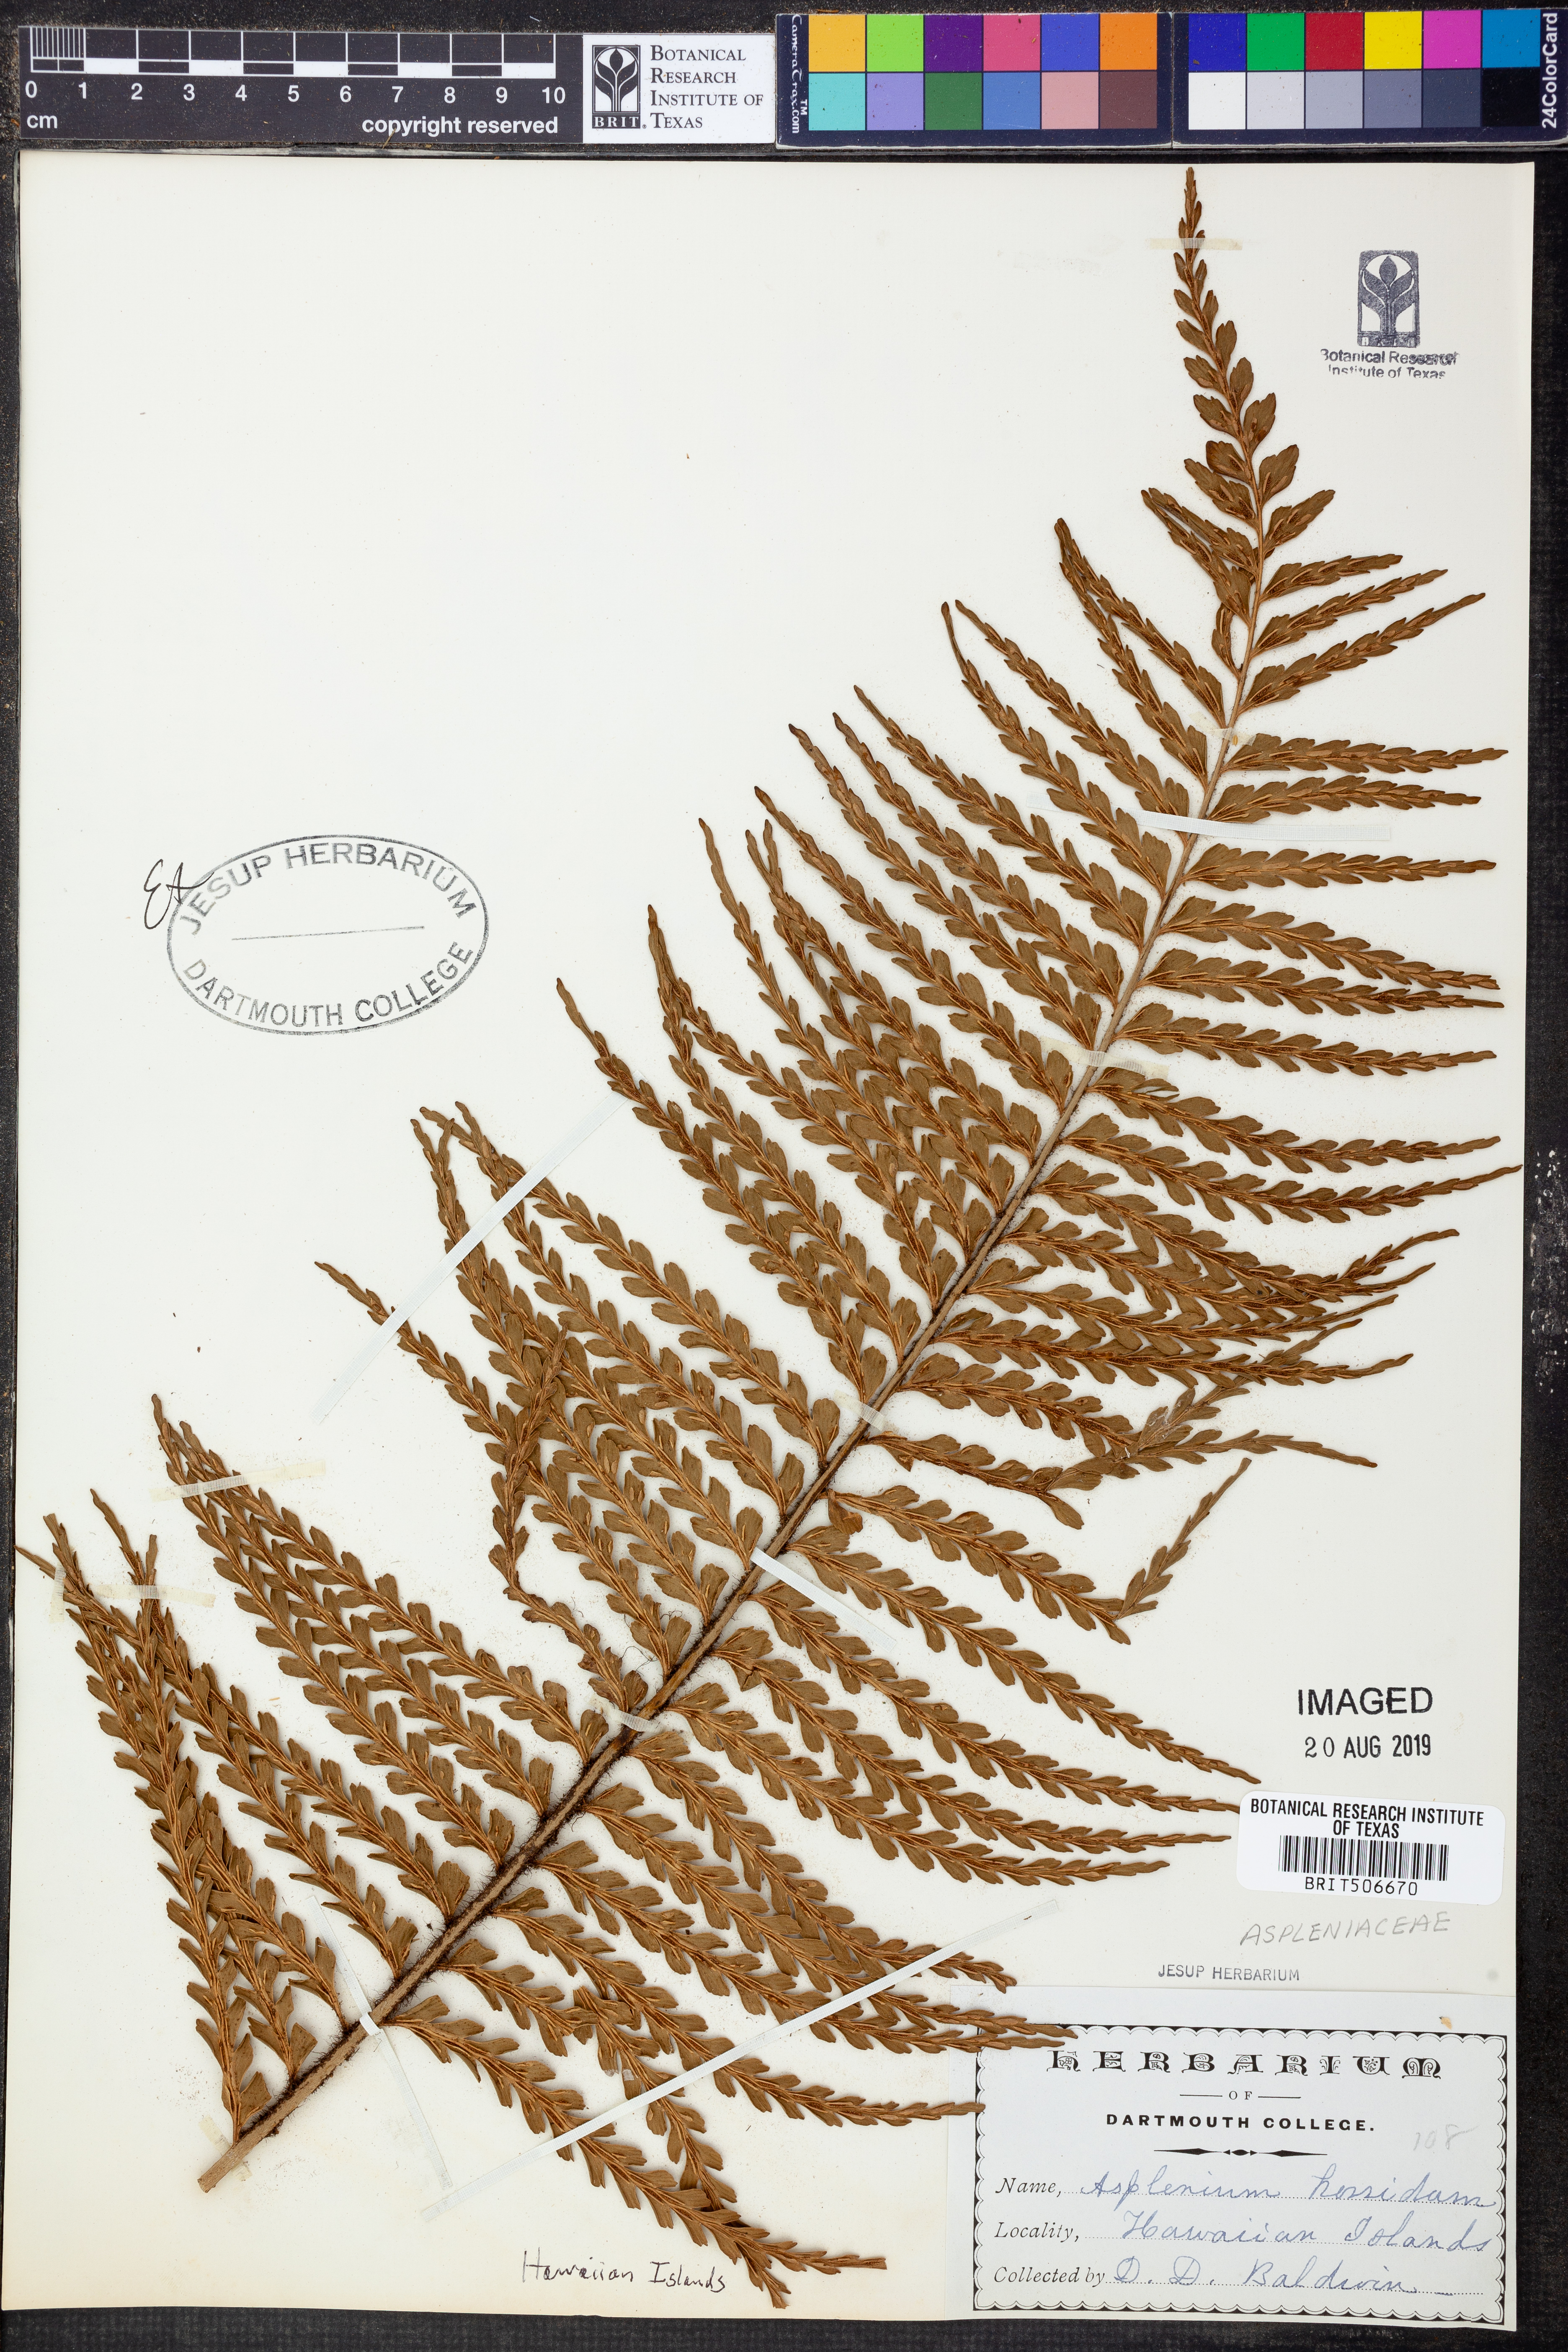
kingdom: Plantae
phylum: Tracheophyta
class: Polypodiopsida
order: Polypodiales
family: Aspleniaceae
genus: Asplenium
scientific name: Asplenium horridum
